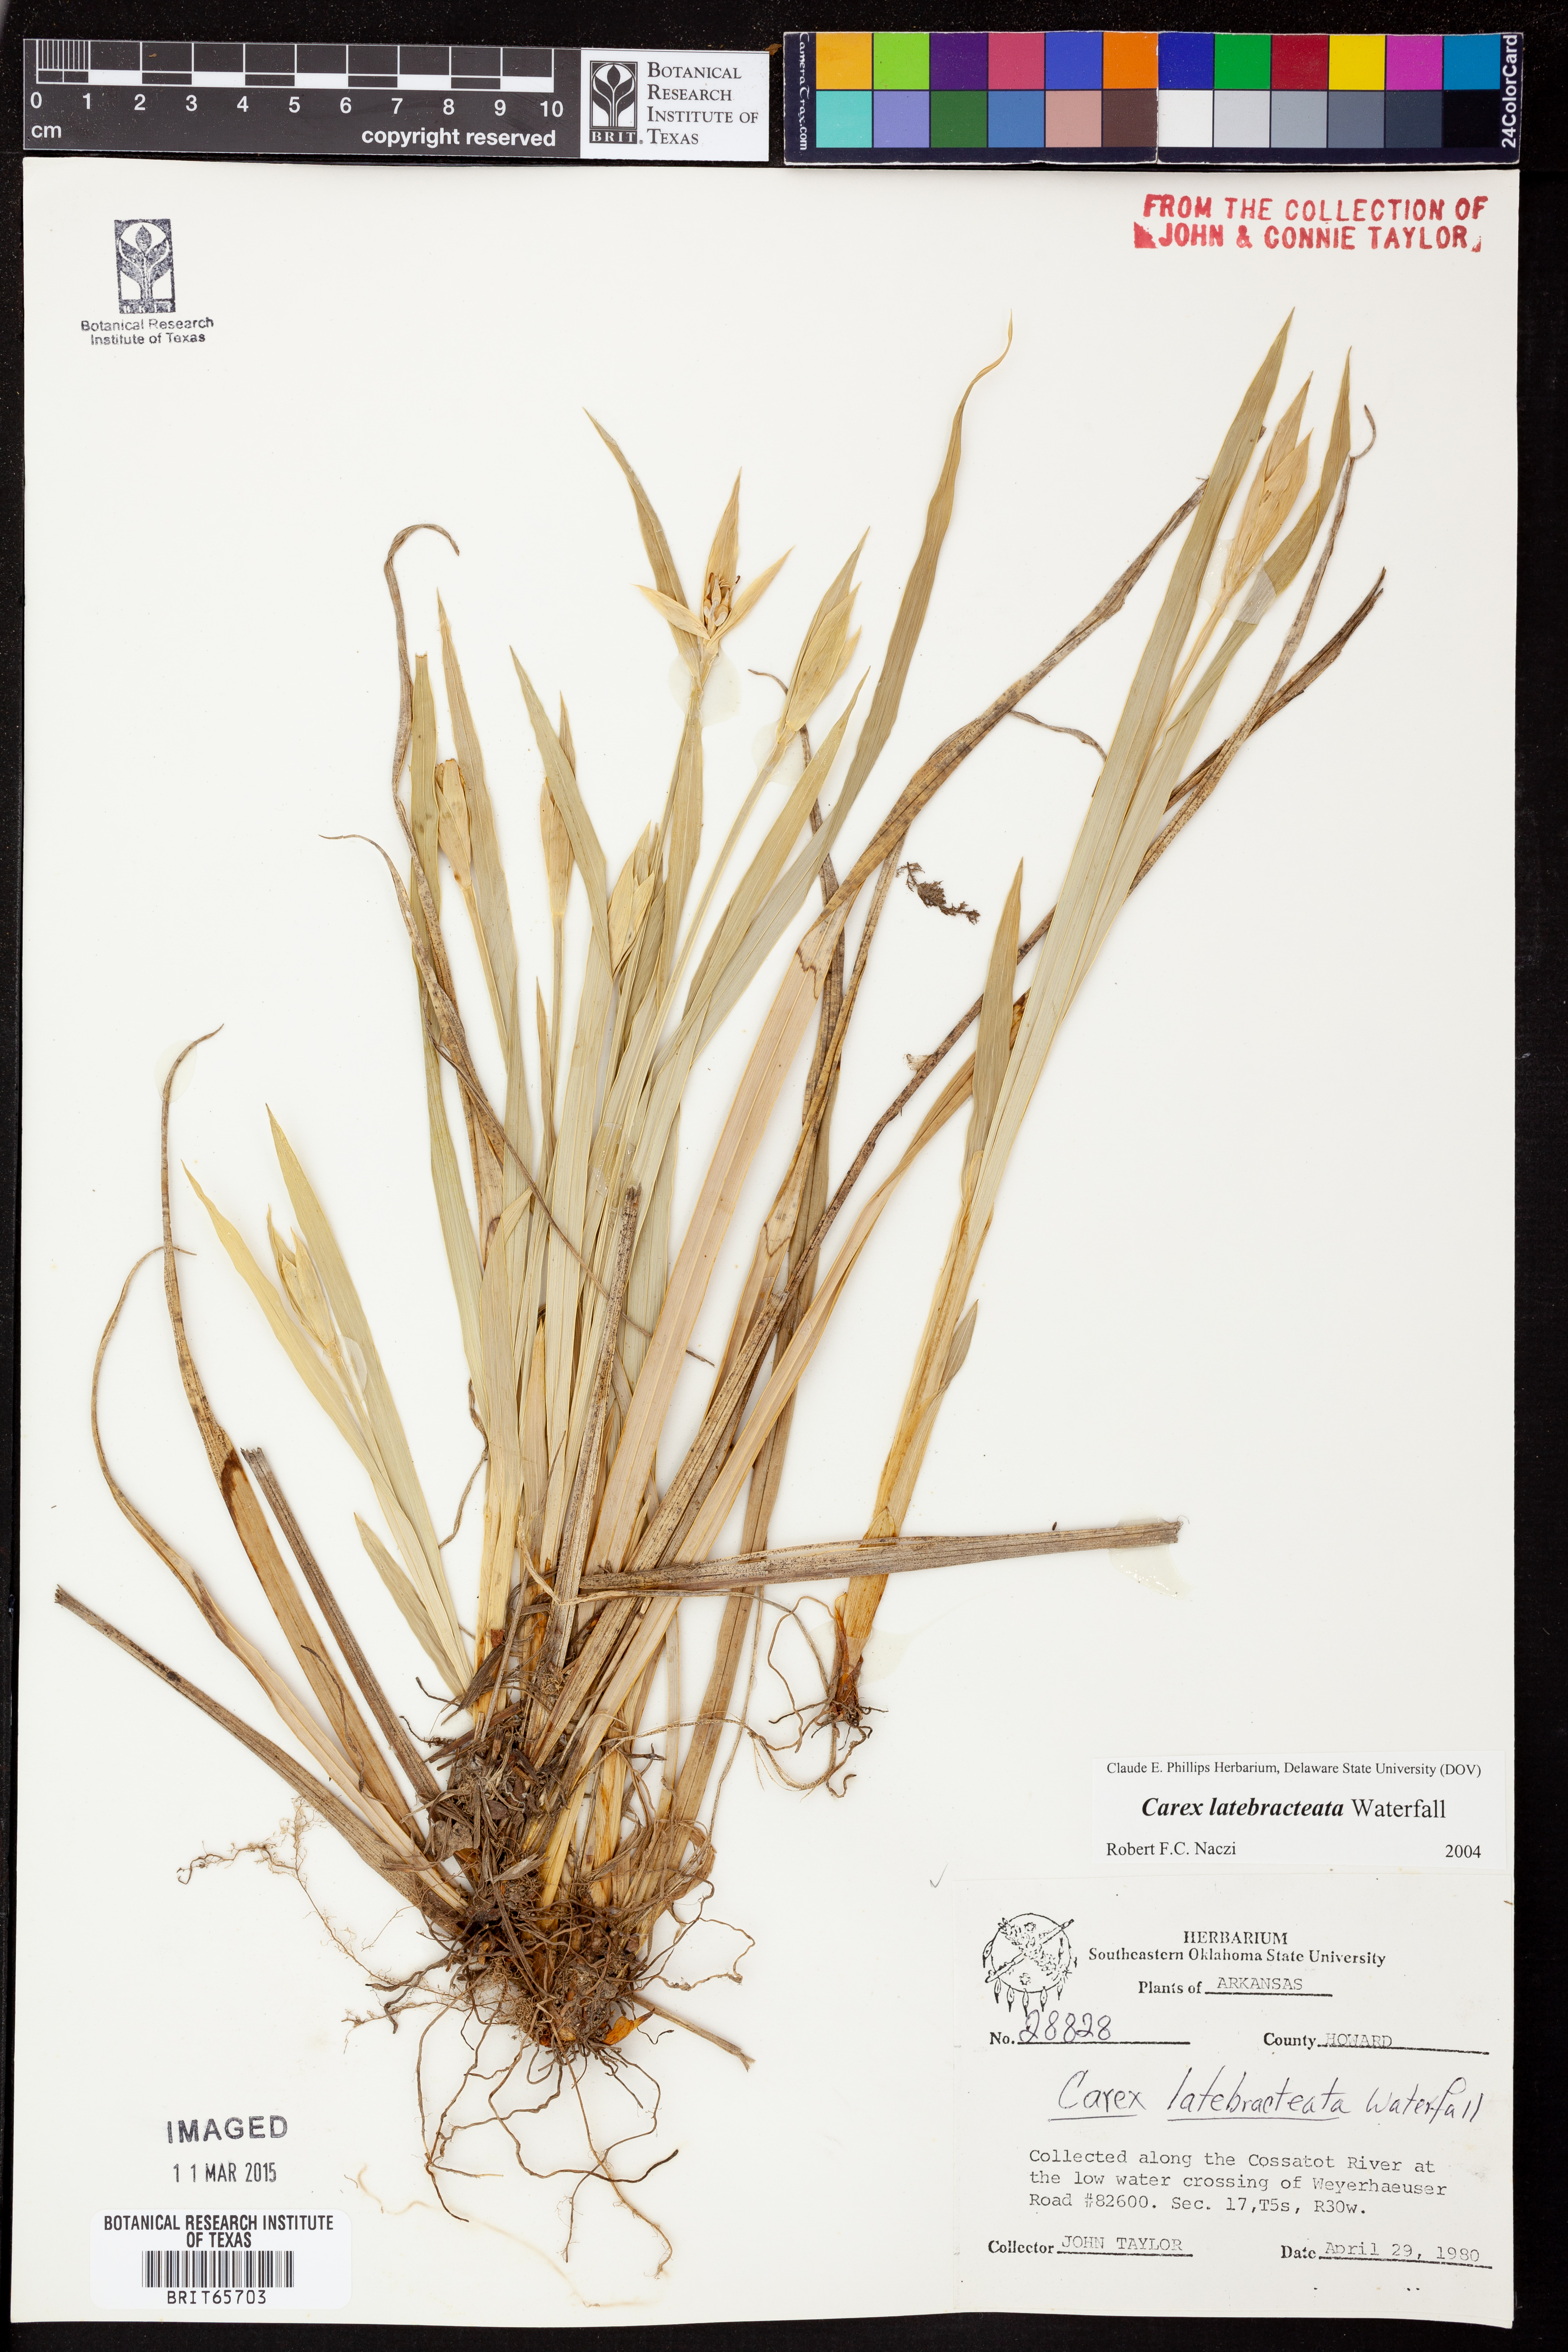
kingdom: Plantae
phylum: Tracheophyta
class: Liliopsida
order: Poales
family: Cyperaceae
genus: Carex
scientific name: Carex latebracteata
